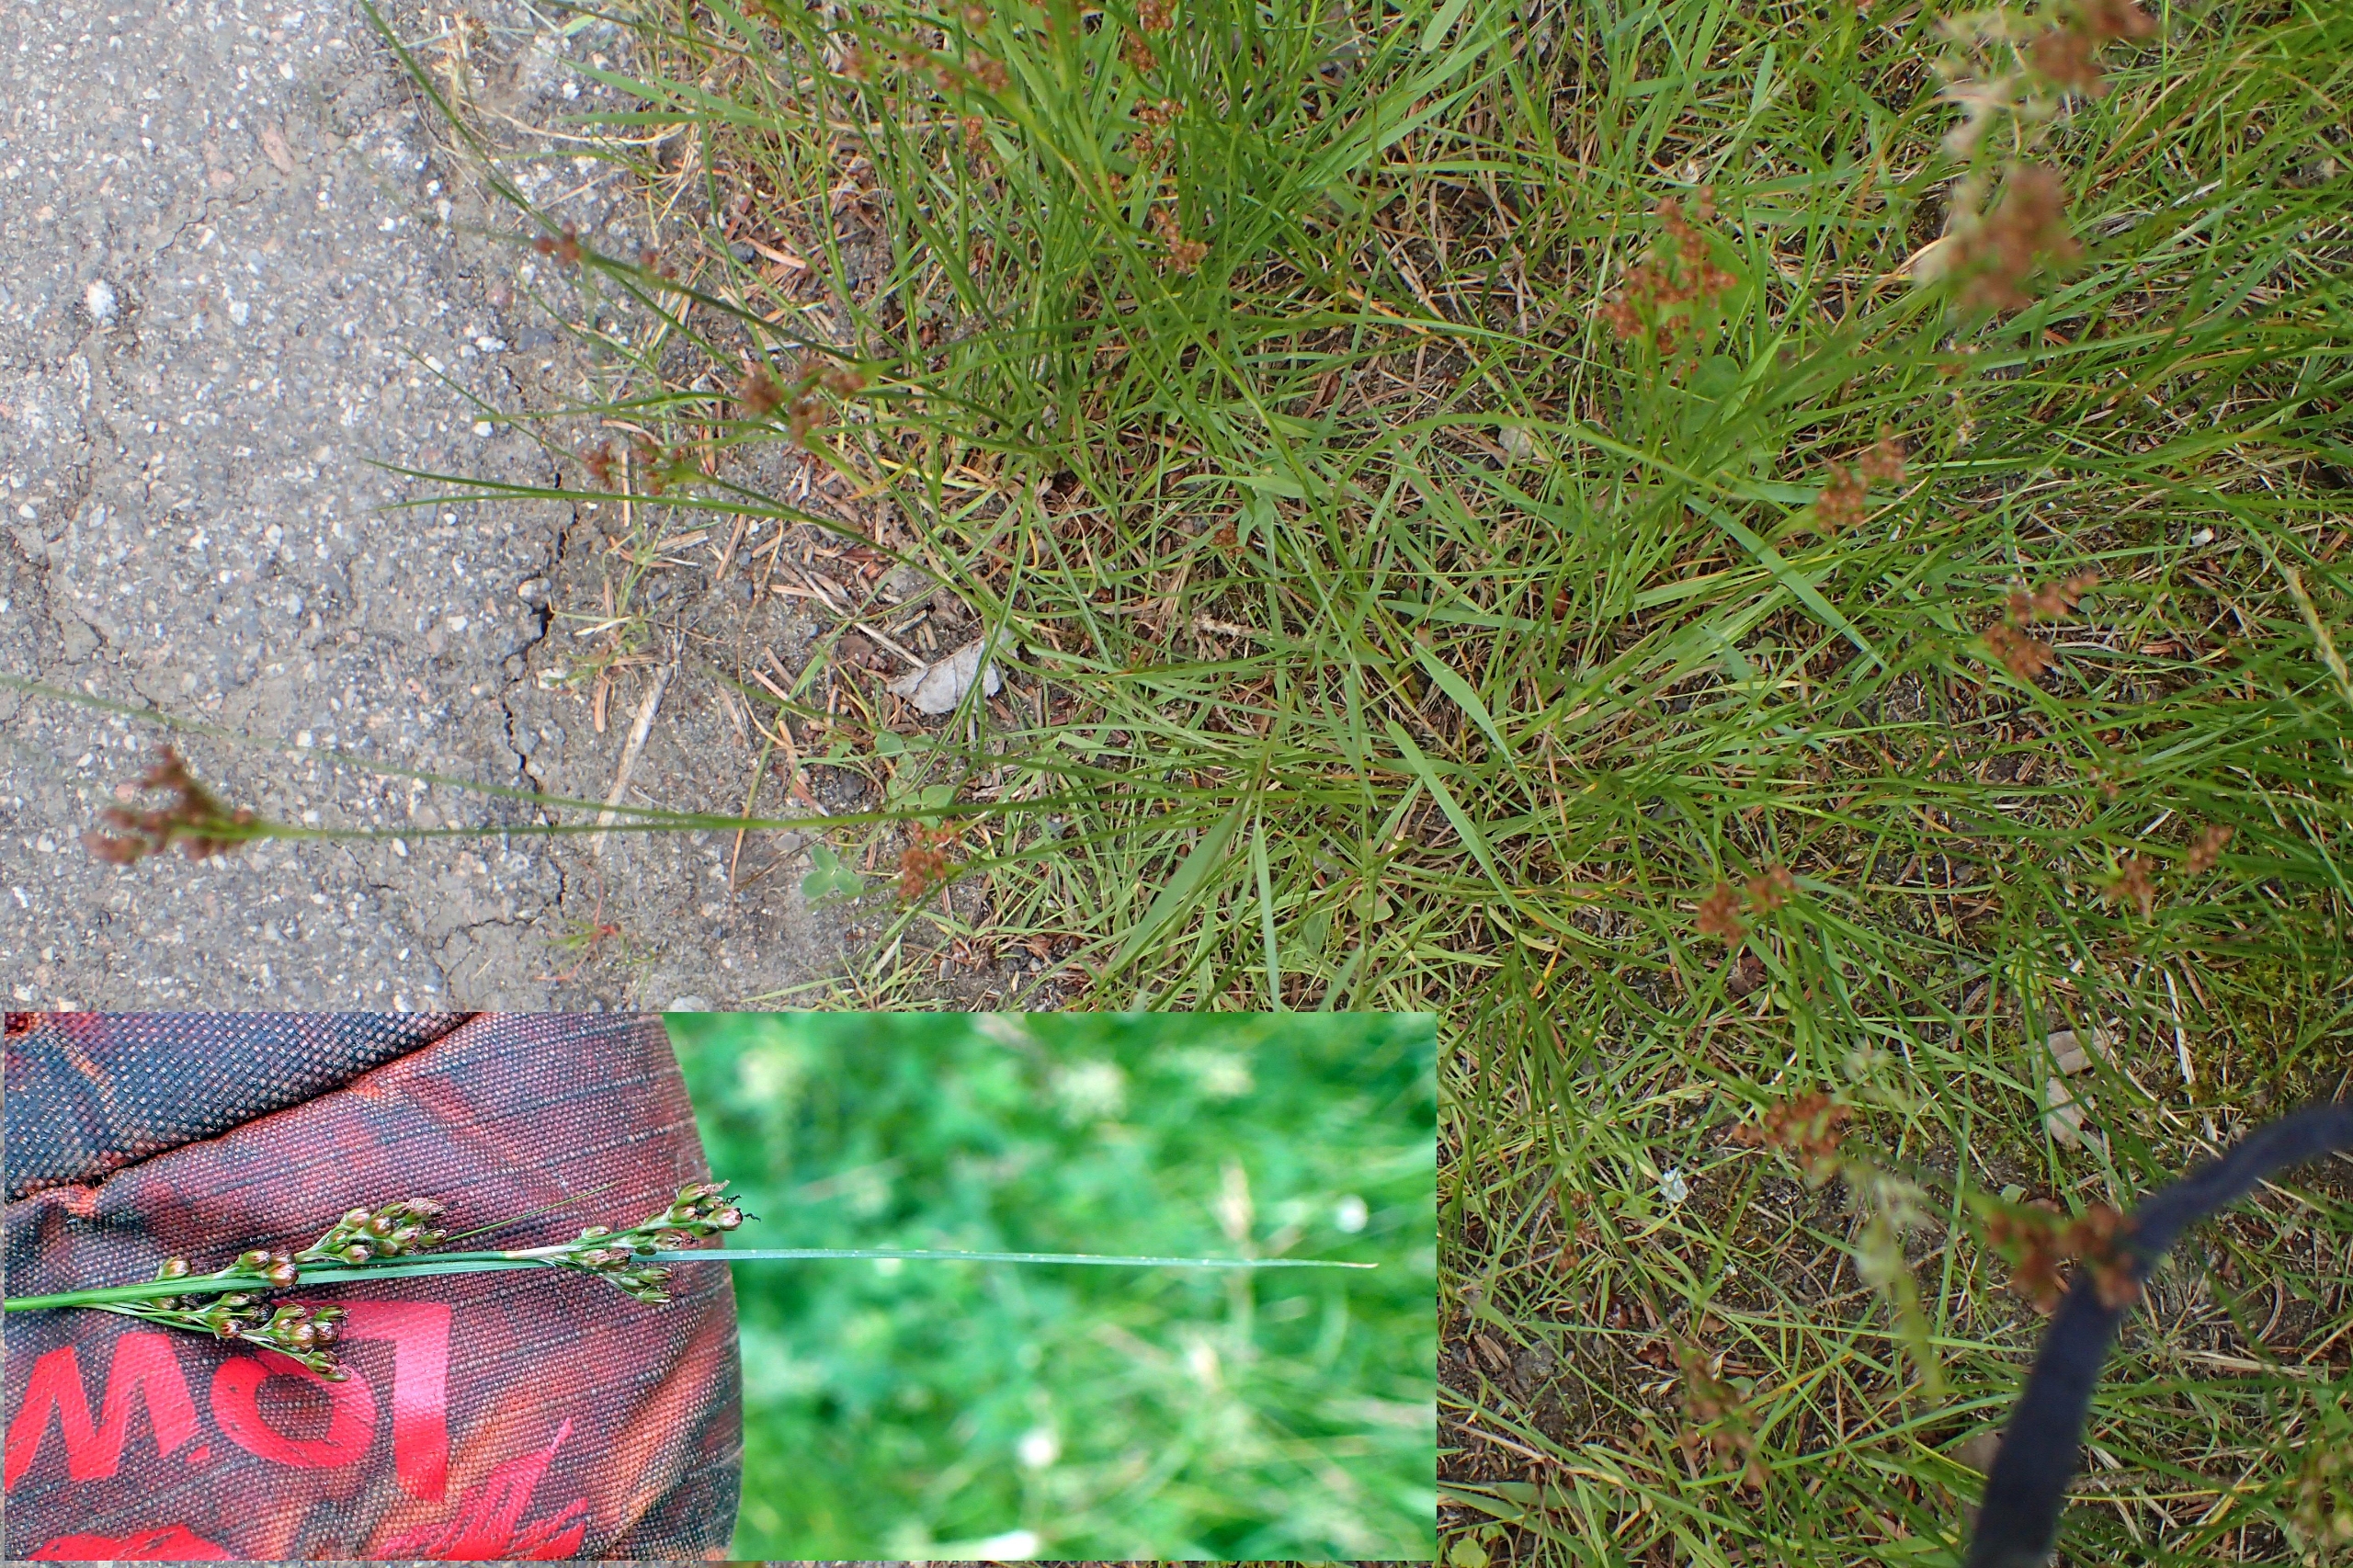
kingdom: Plantae
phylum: Tracheophyta
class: Liliopsida
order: Poales
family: Juncaceae
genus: Juncus
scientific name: Juncus compressus
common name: Fladstrået siv
